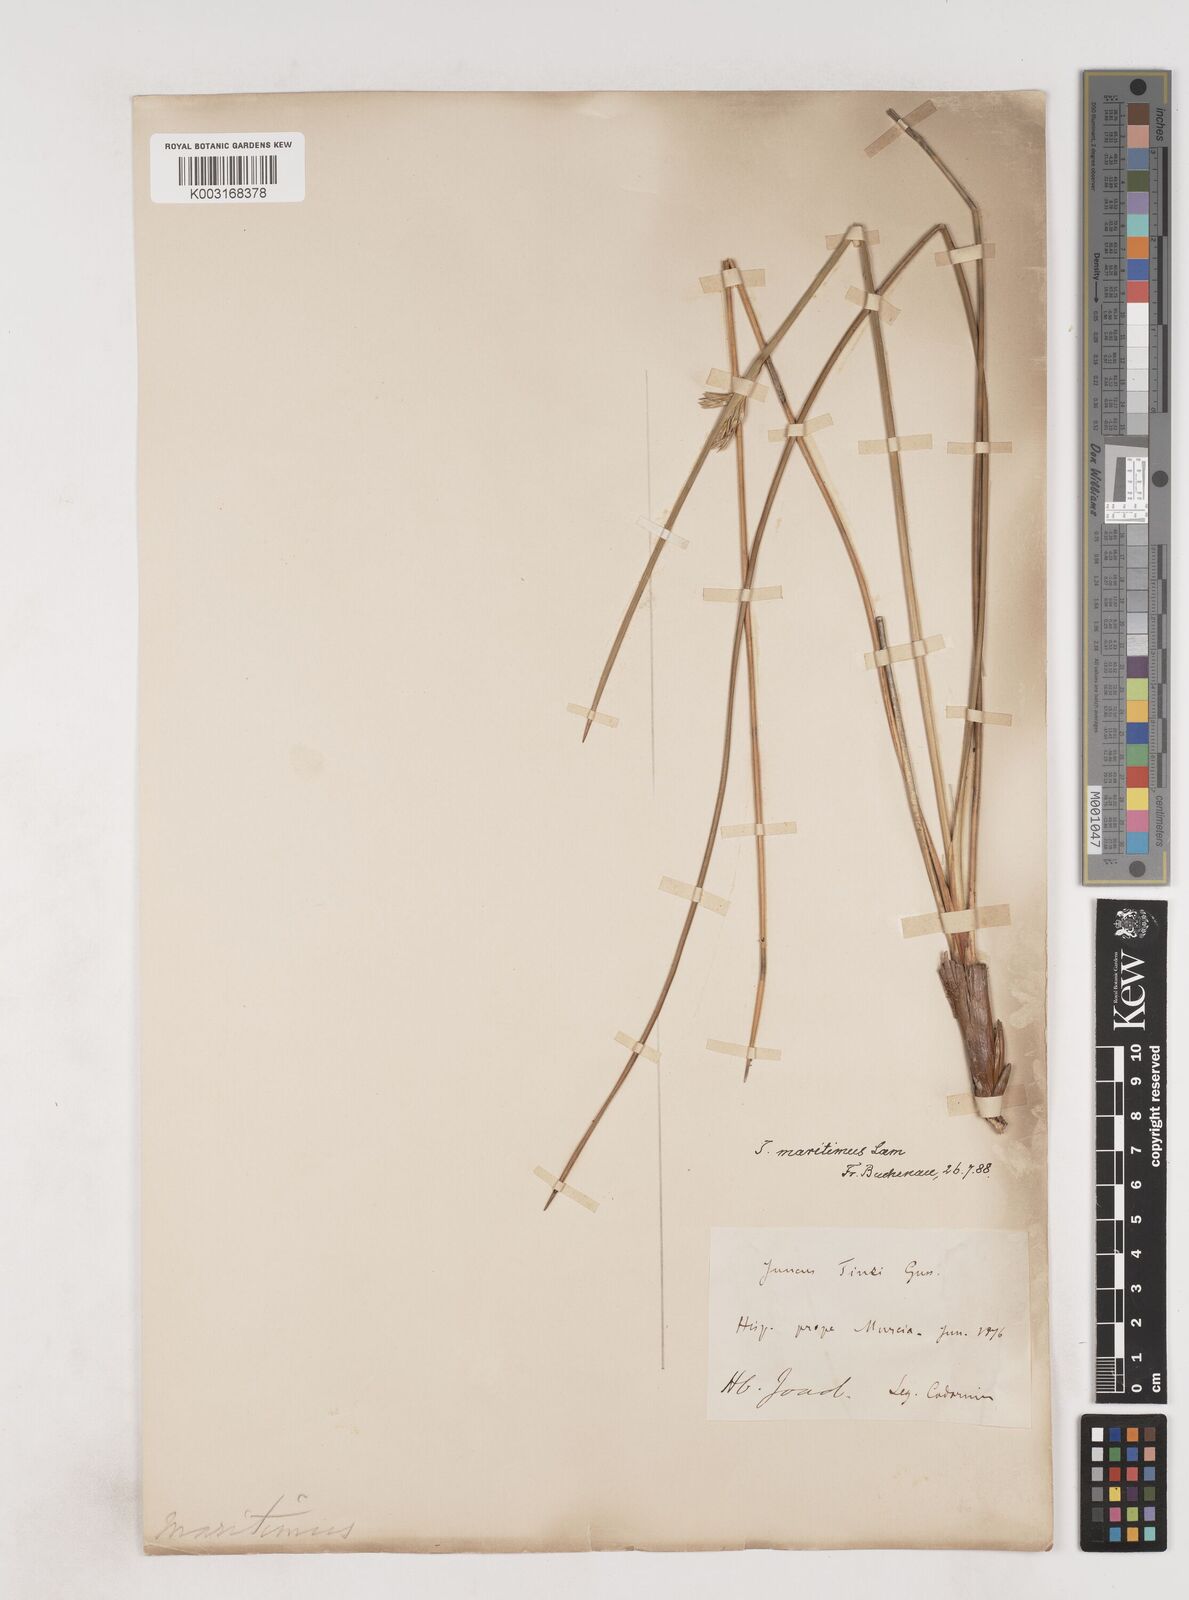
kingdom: Plantae
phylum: Tracheophyta
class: Liliopsida
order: Poales
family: Juncaceae
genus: Luzula
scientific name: Luzula sylvatica
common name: Great wood-rush
